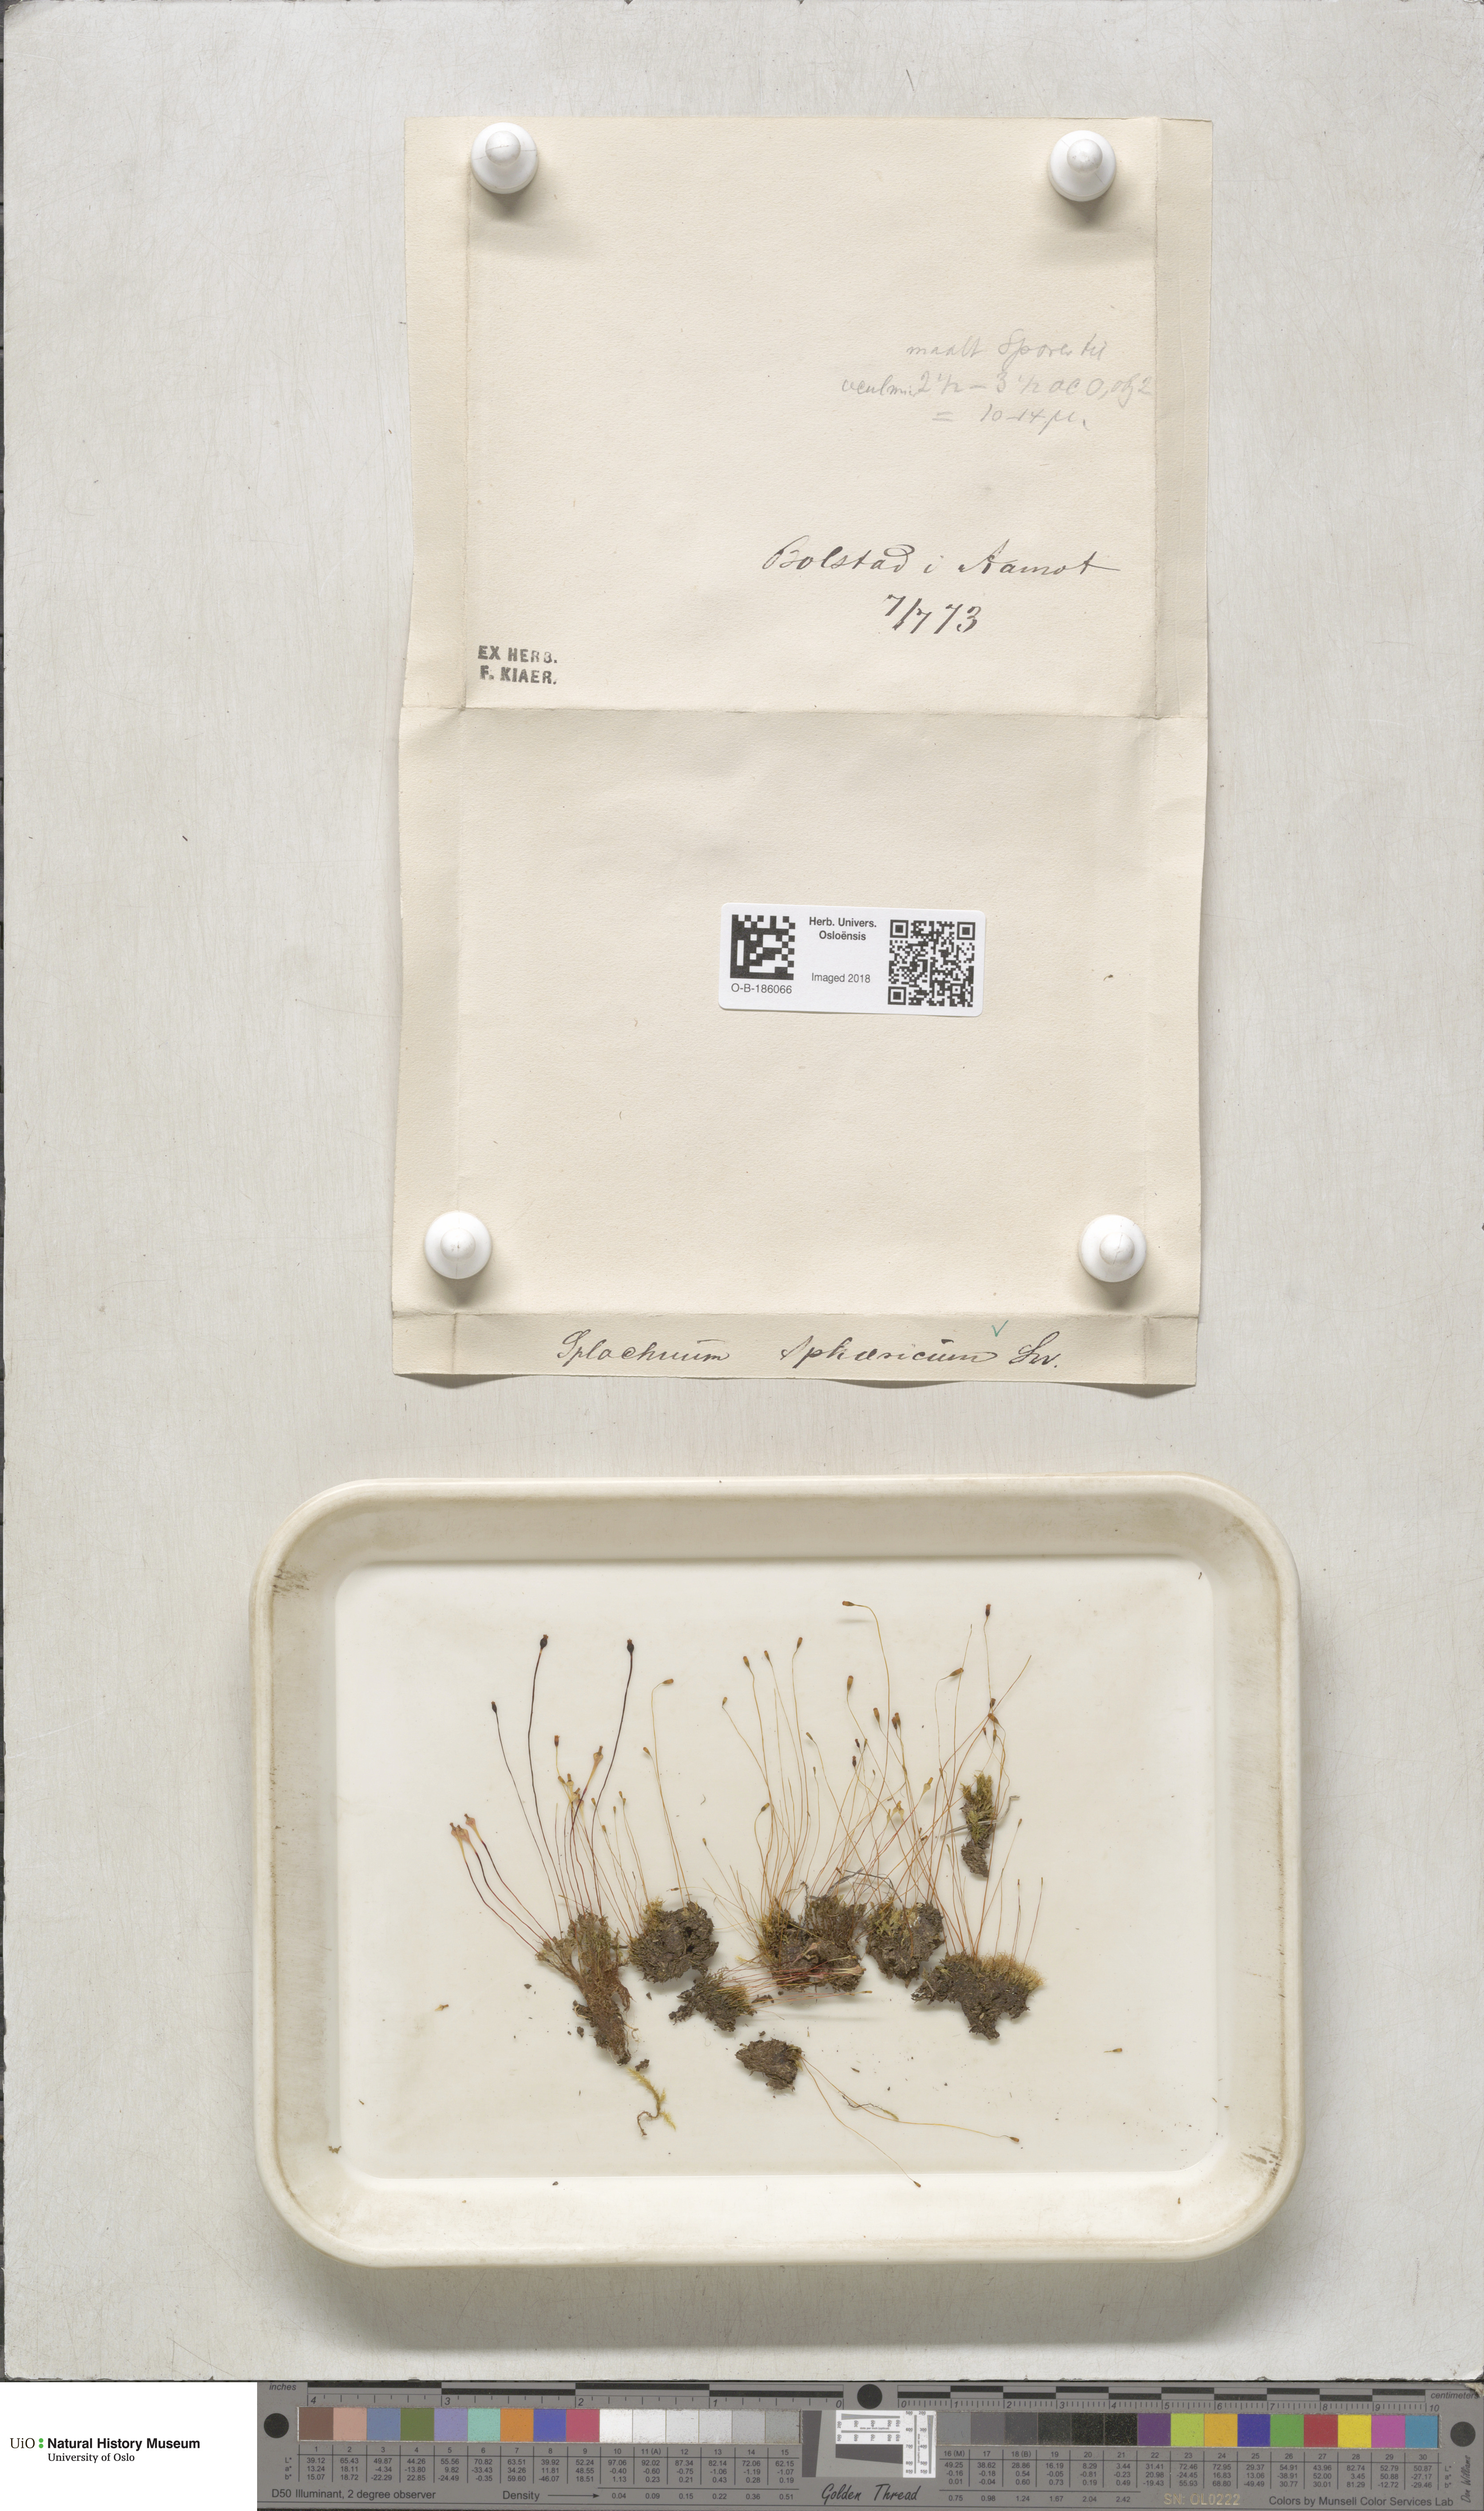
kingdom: Plantae
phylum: Bryophyta
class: Bryopsida
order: Splachnales
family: Splachnaceae
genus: Splachnum
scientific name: Splachnum sphaericum
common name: Round-fruited dung moss
